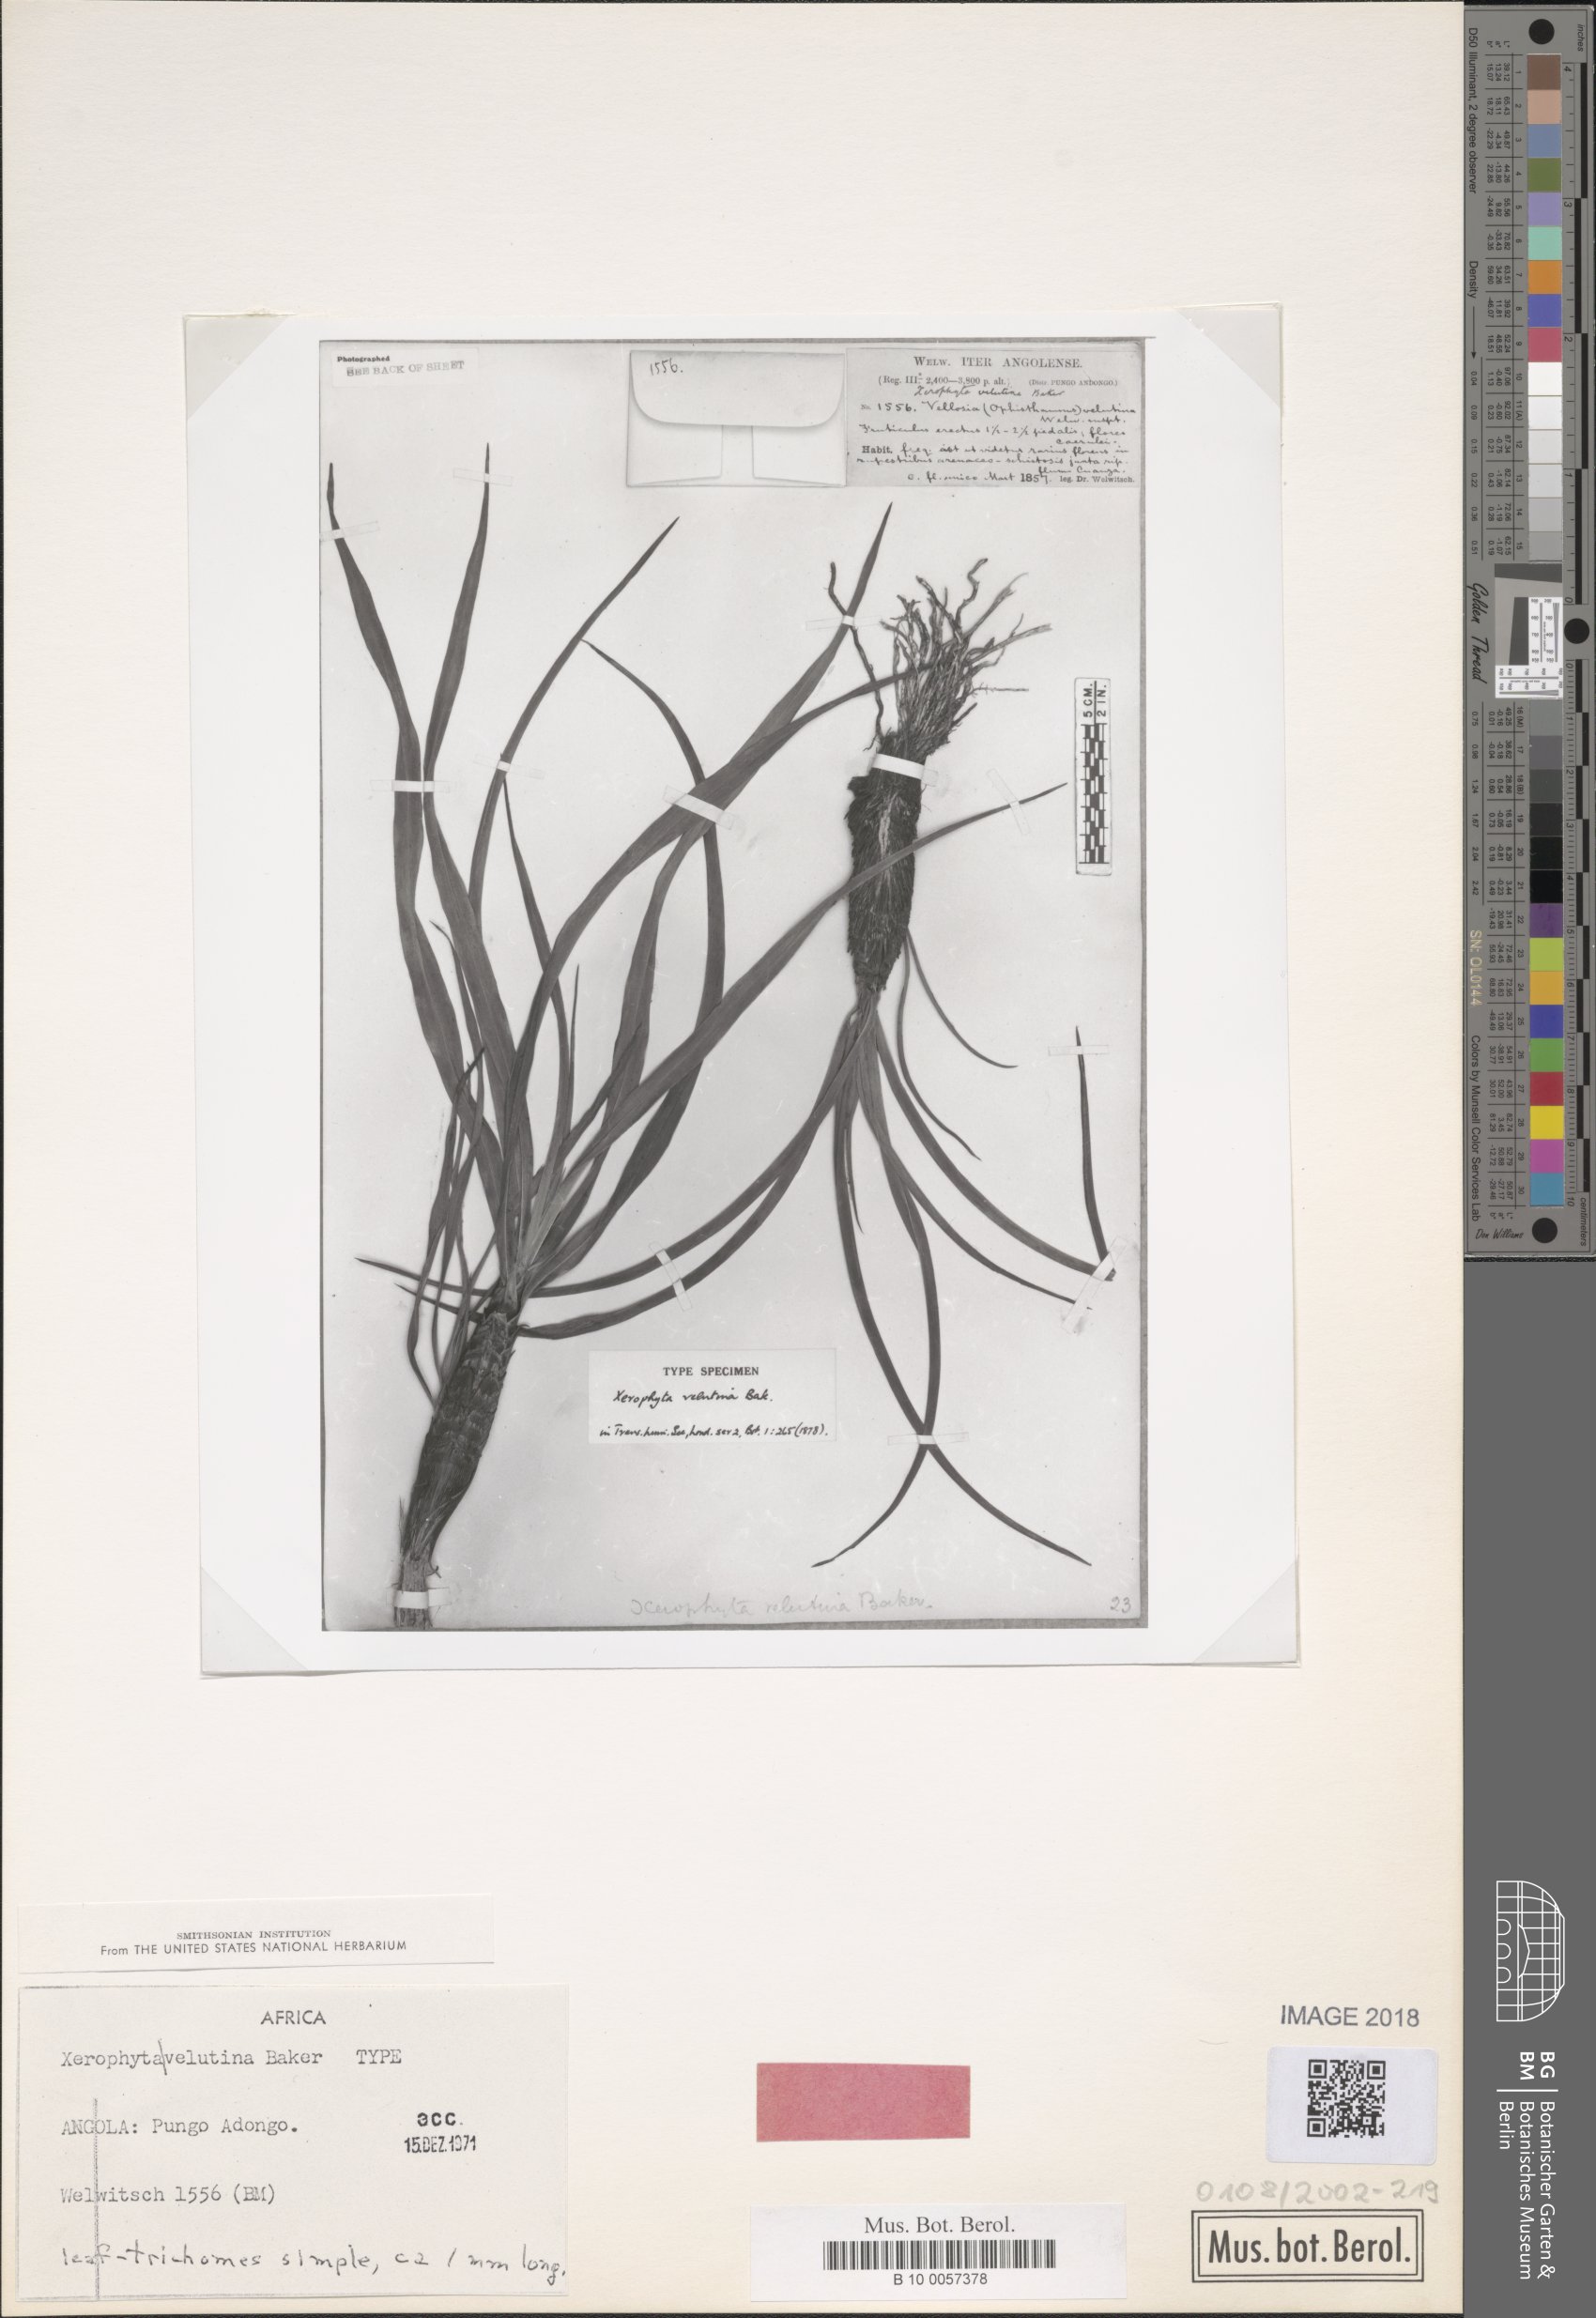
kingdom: Plantae
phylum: Tracheophyta
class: Liliopsida
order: Pandanales
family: Velloziaceae
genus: Xerophyta
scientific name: Xerophyta velutina
